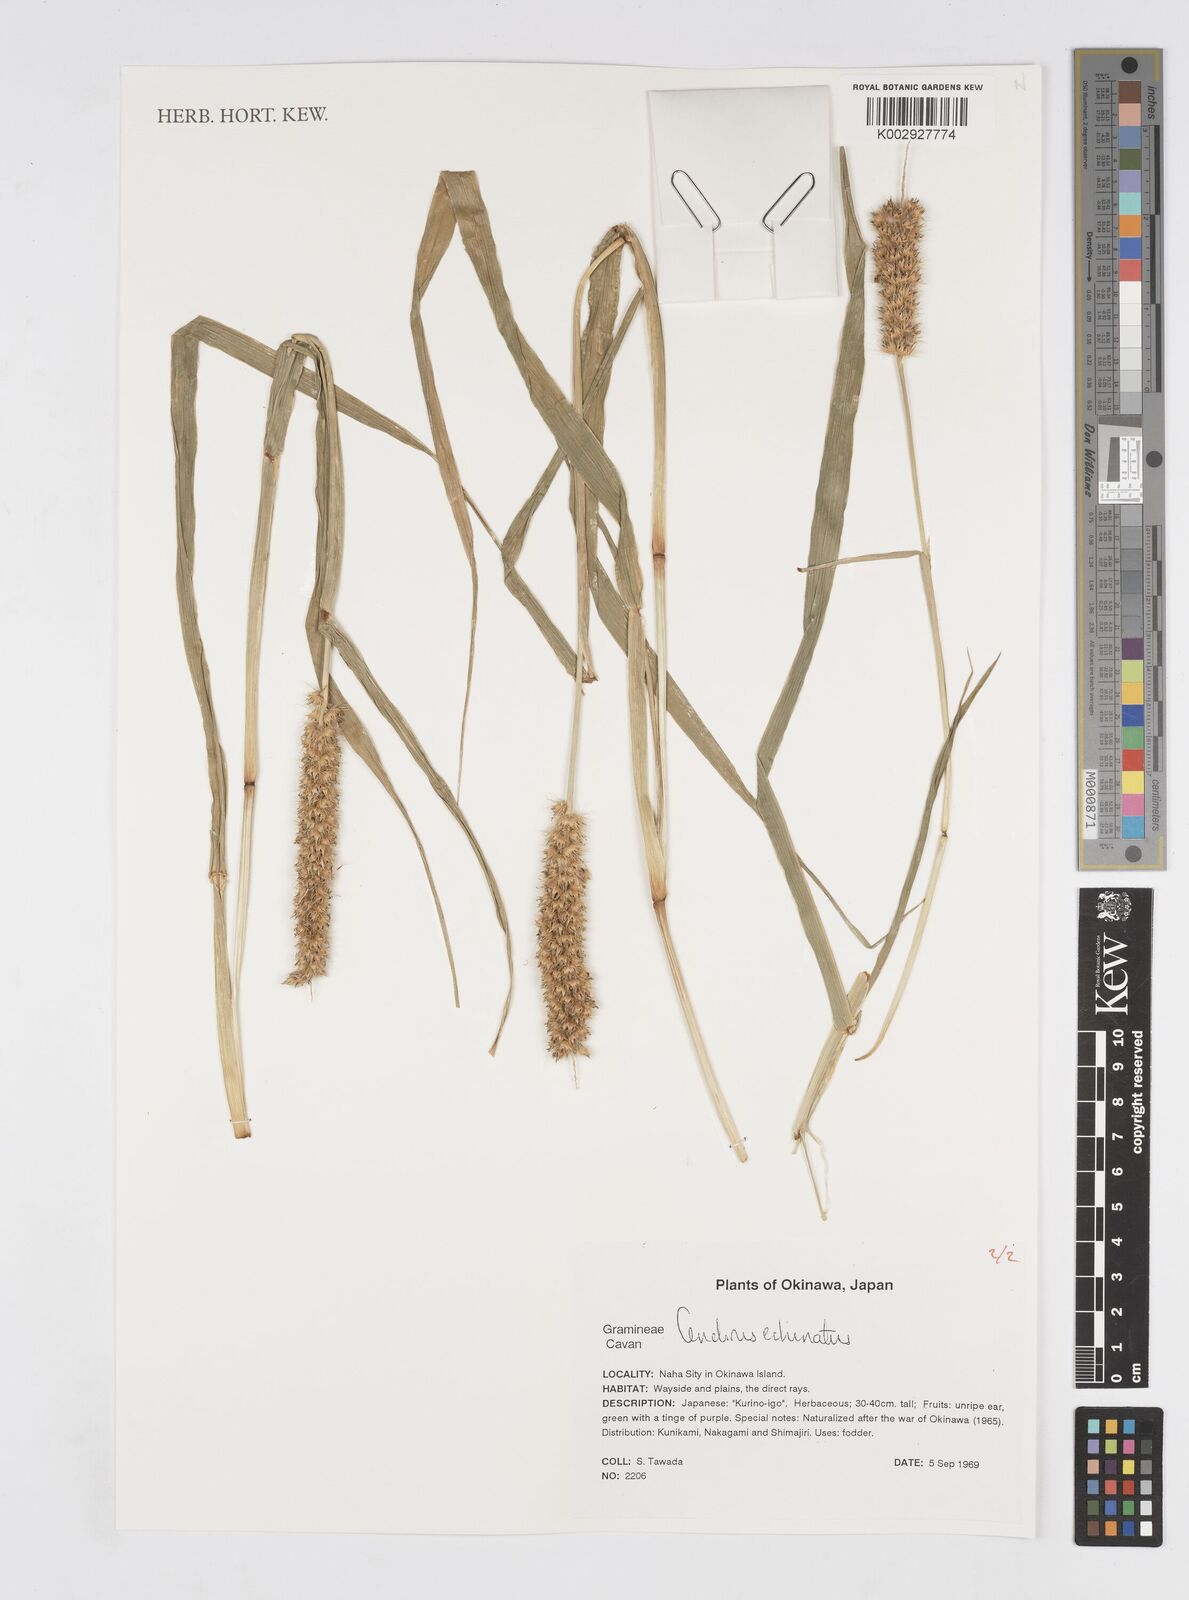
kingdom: Plantae
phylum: Tracheophyta
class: Liliopsida
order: Poales
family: Poaceae
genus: Cenchrus
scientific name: Cenchrus echinatus
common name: Southern sandbur
